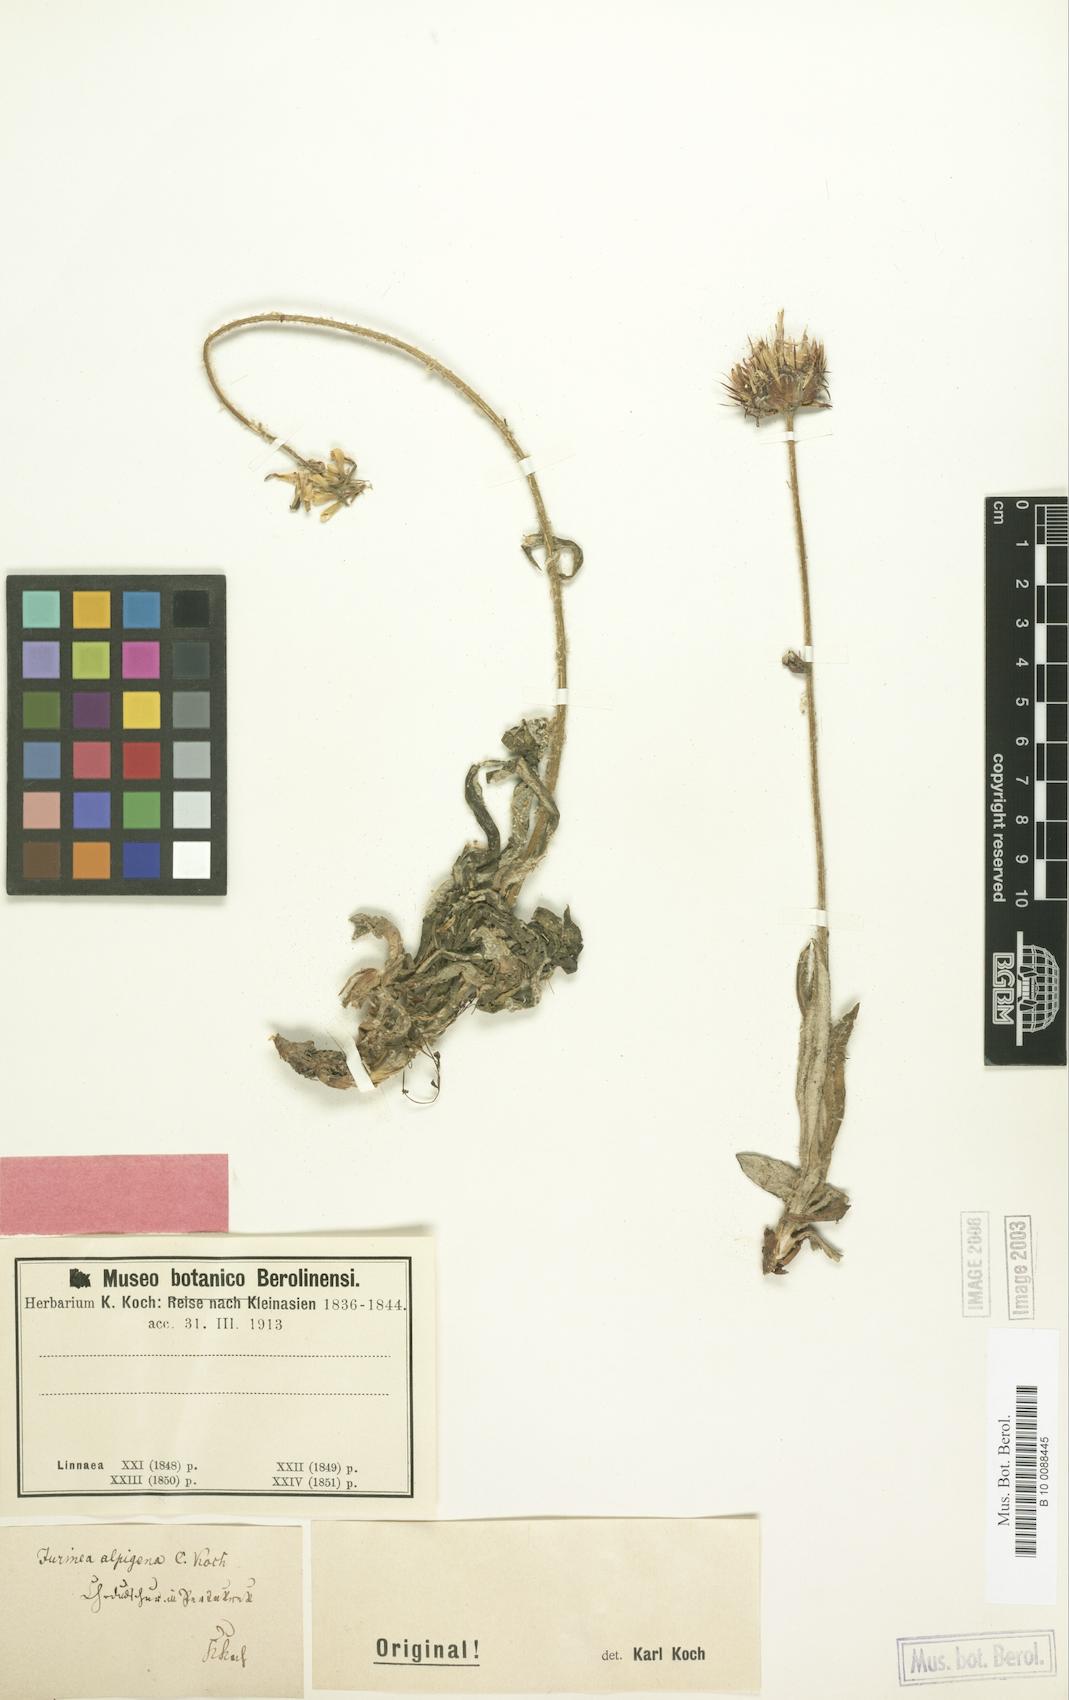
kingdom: Plantae
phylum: Tracheophyta
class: Magnoliopsida
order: Asterales
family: Asteraceae
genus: Jurinea
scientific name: Jurinea alpigena
